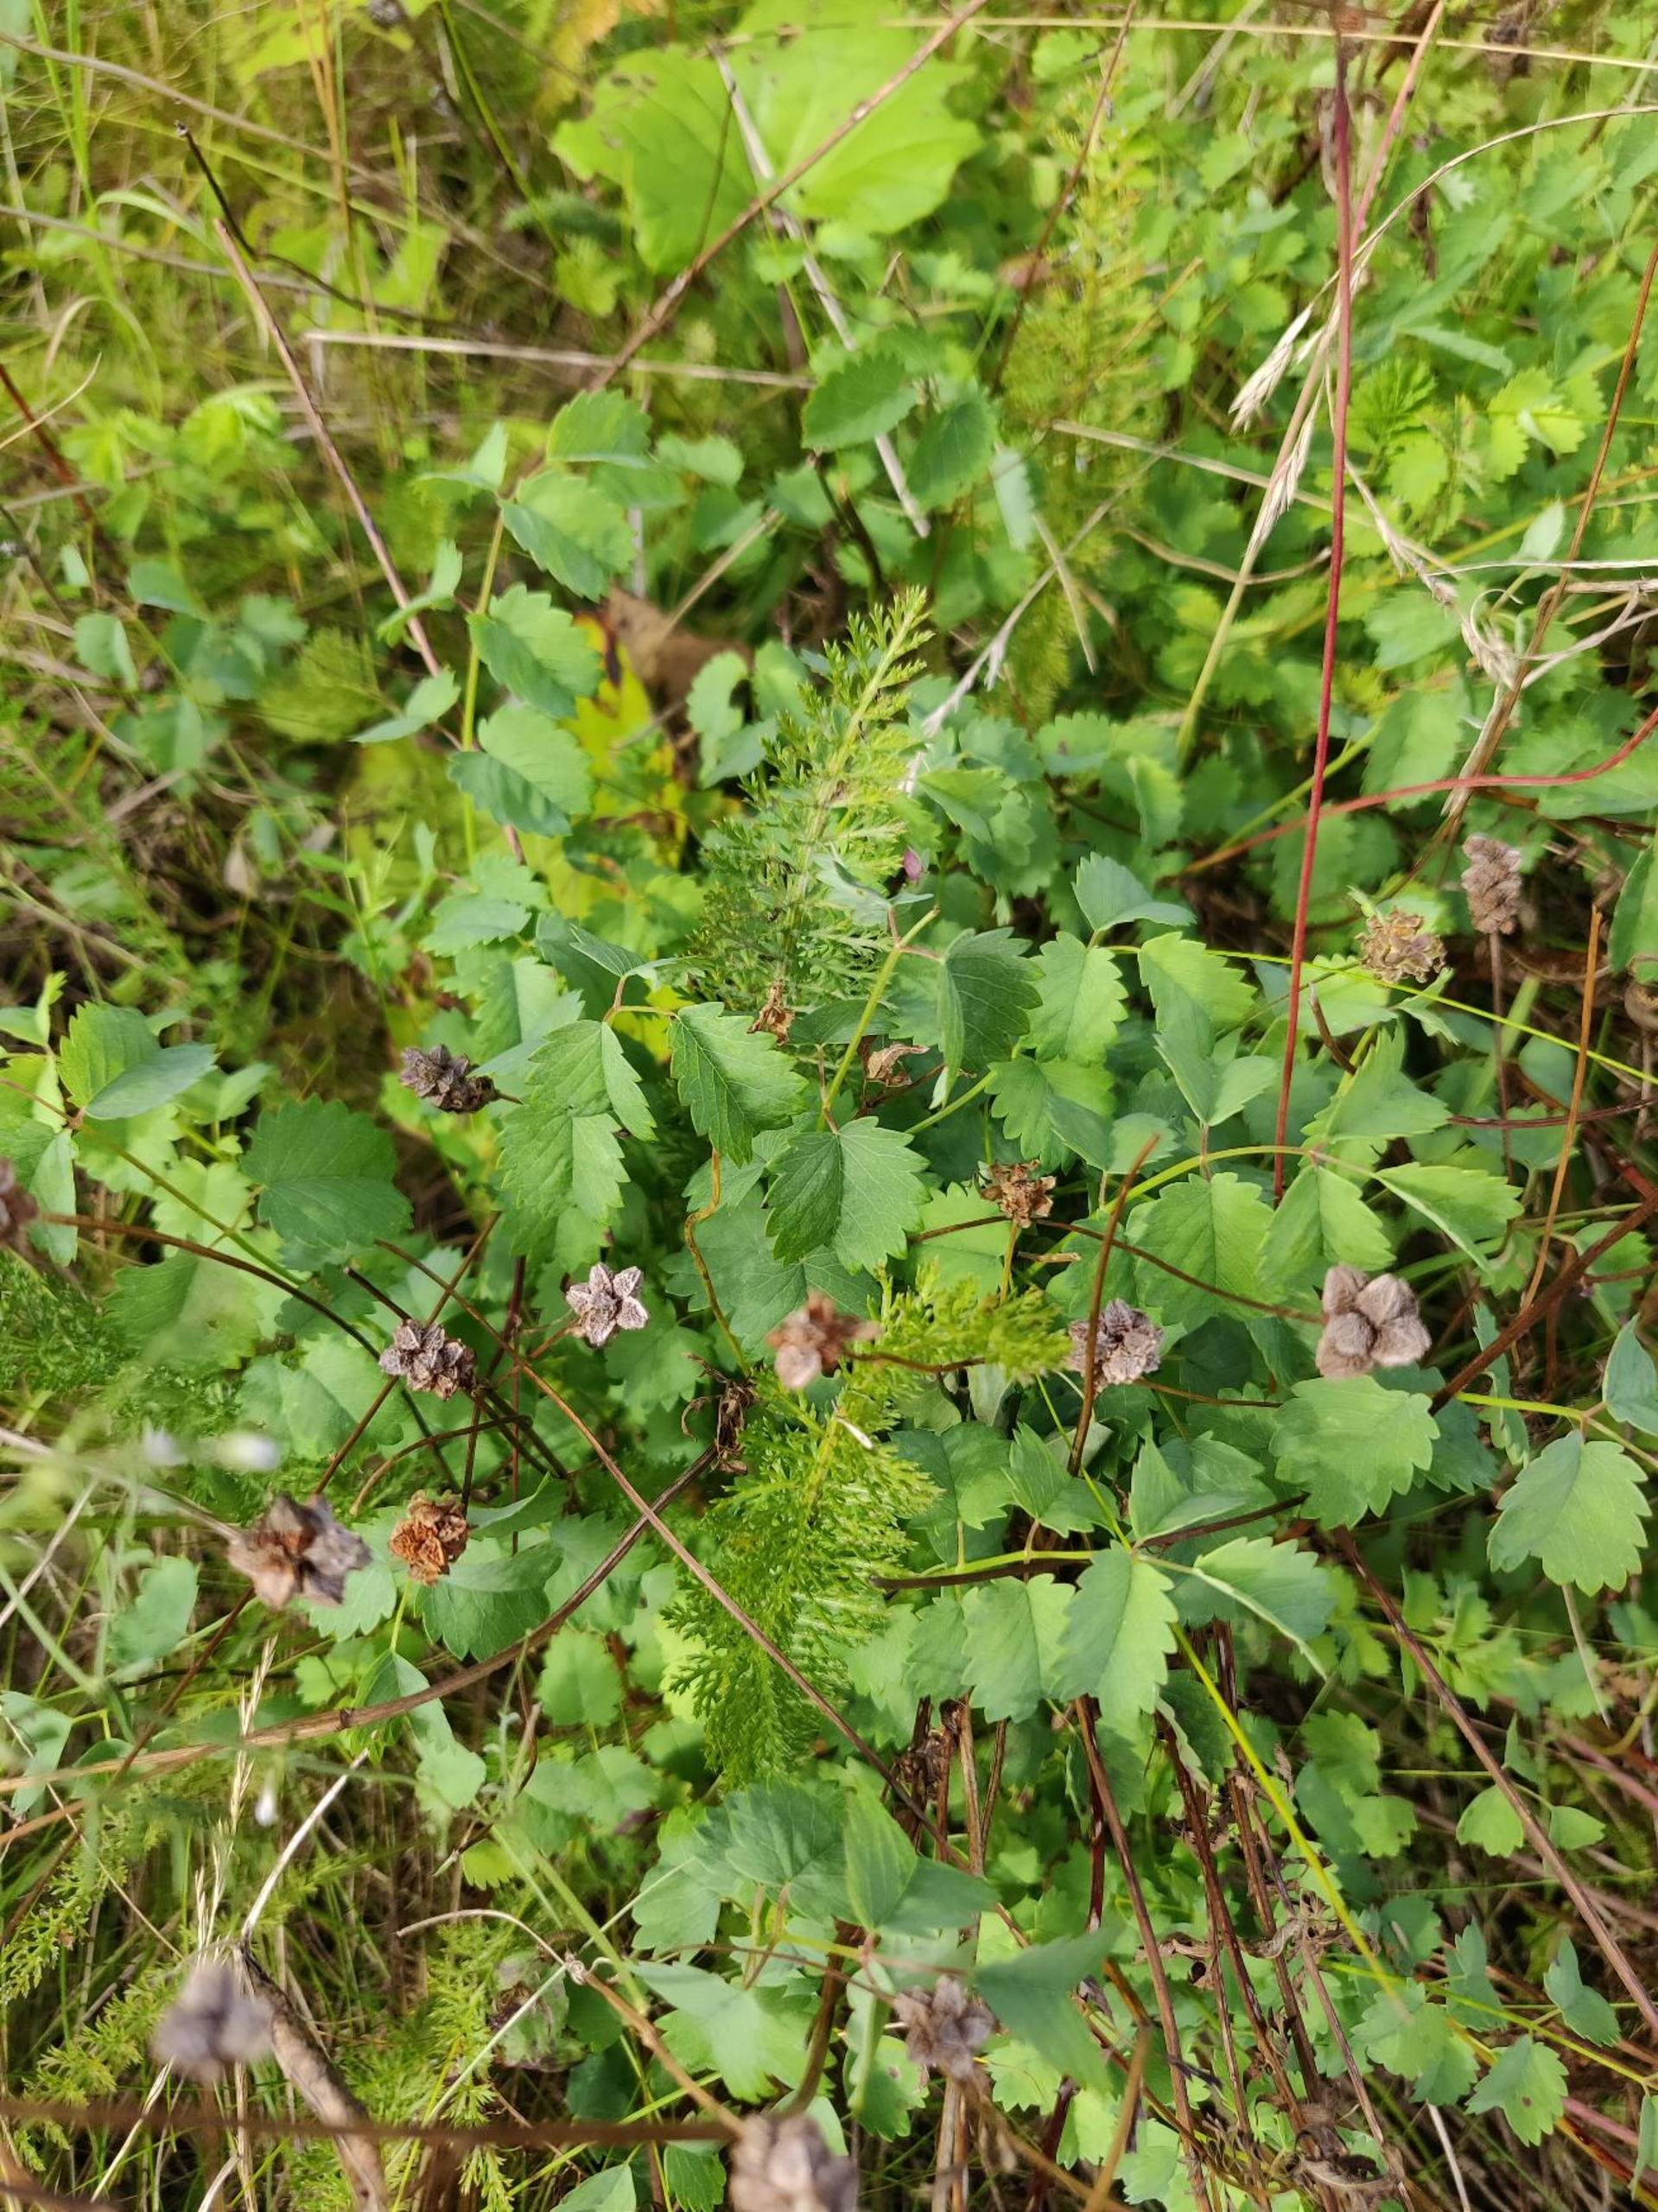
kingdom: Plantae
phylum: Tracheophyta
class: Magnoliopsida
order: Rosales
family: Rosaceae
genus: Poterium
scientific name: Poterium sanguisorba
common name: Bibernelle
